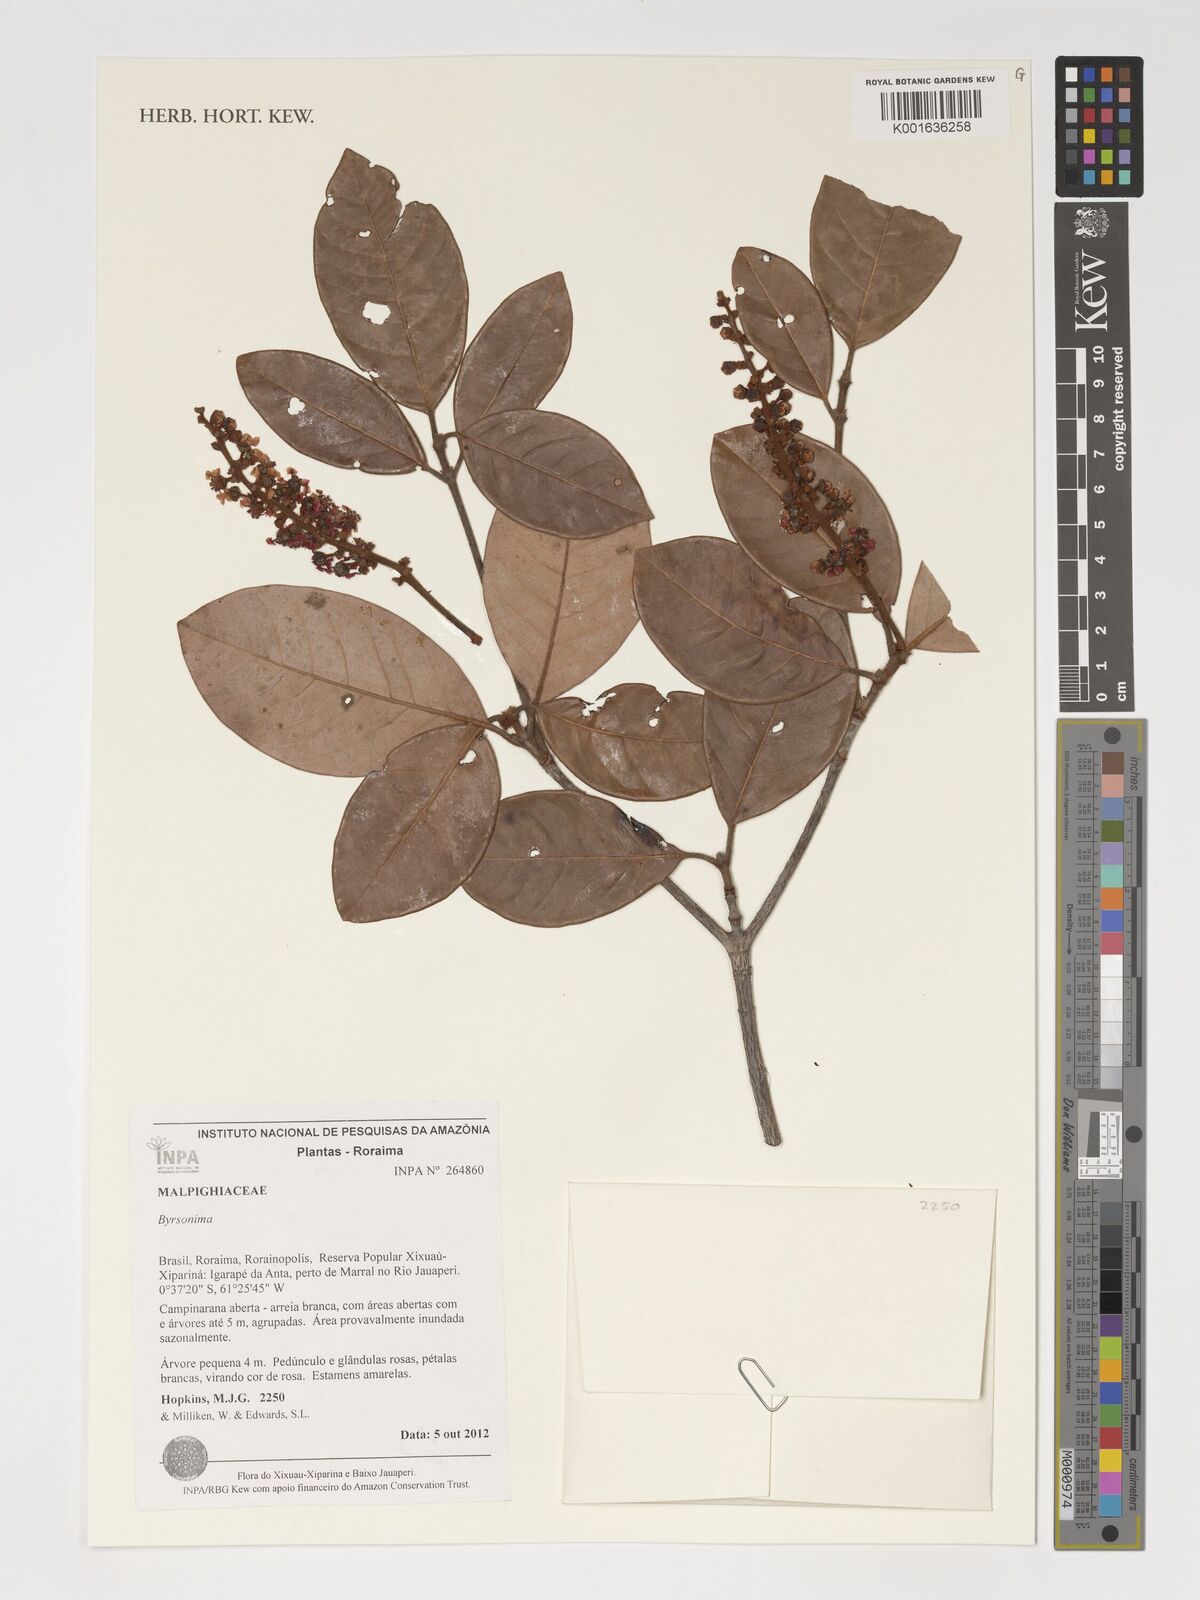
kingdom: Plantae
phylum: Tracheophyta
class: Magnoliopsida
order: Malpighiales
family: Malpighiaceae
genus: Byrsonima
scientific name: Byrsonima
